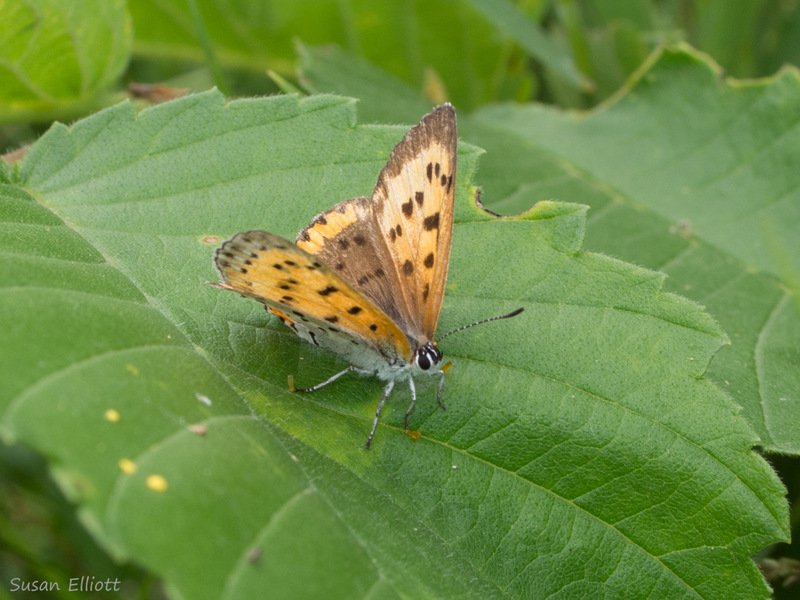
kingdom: Animalia
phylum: Arthropoda
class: Insecta
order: Lepidoptera
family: Sesiidae
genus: Sesia
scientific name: Sesia Lycaena hyllus
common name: Bronze Copper
